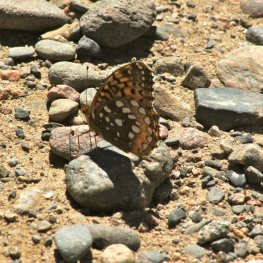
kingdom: Animalia
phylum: Arthropoda
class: Insecta
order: Lepidoptera
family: Nymphalidae
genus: Speyeria
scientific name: Speyeria cybele
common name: Great Spangled Fritillary
